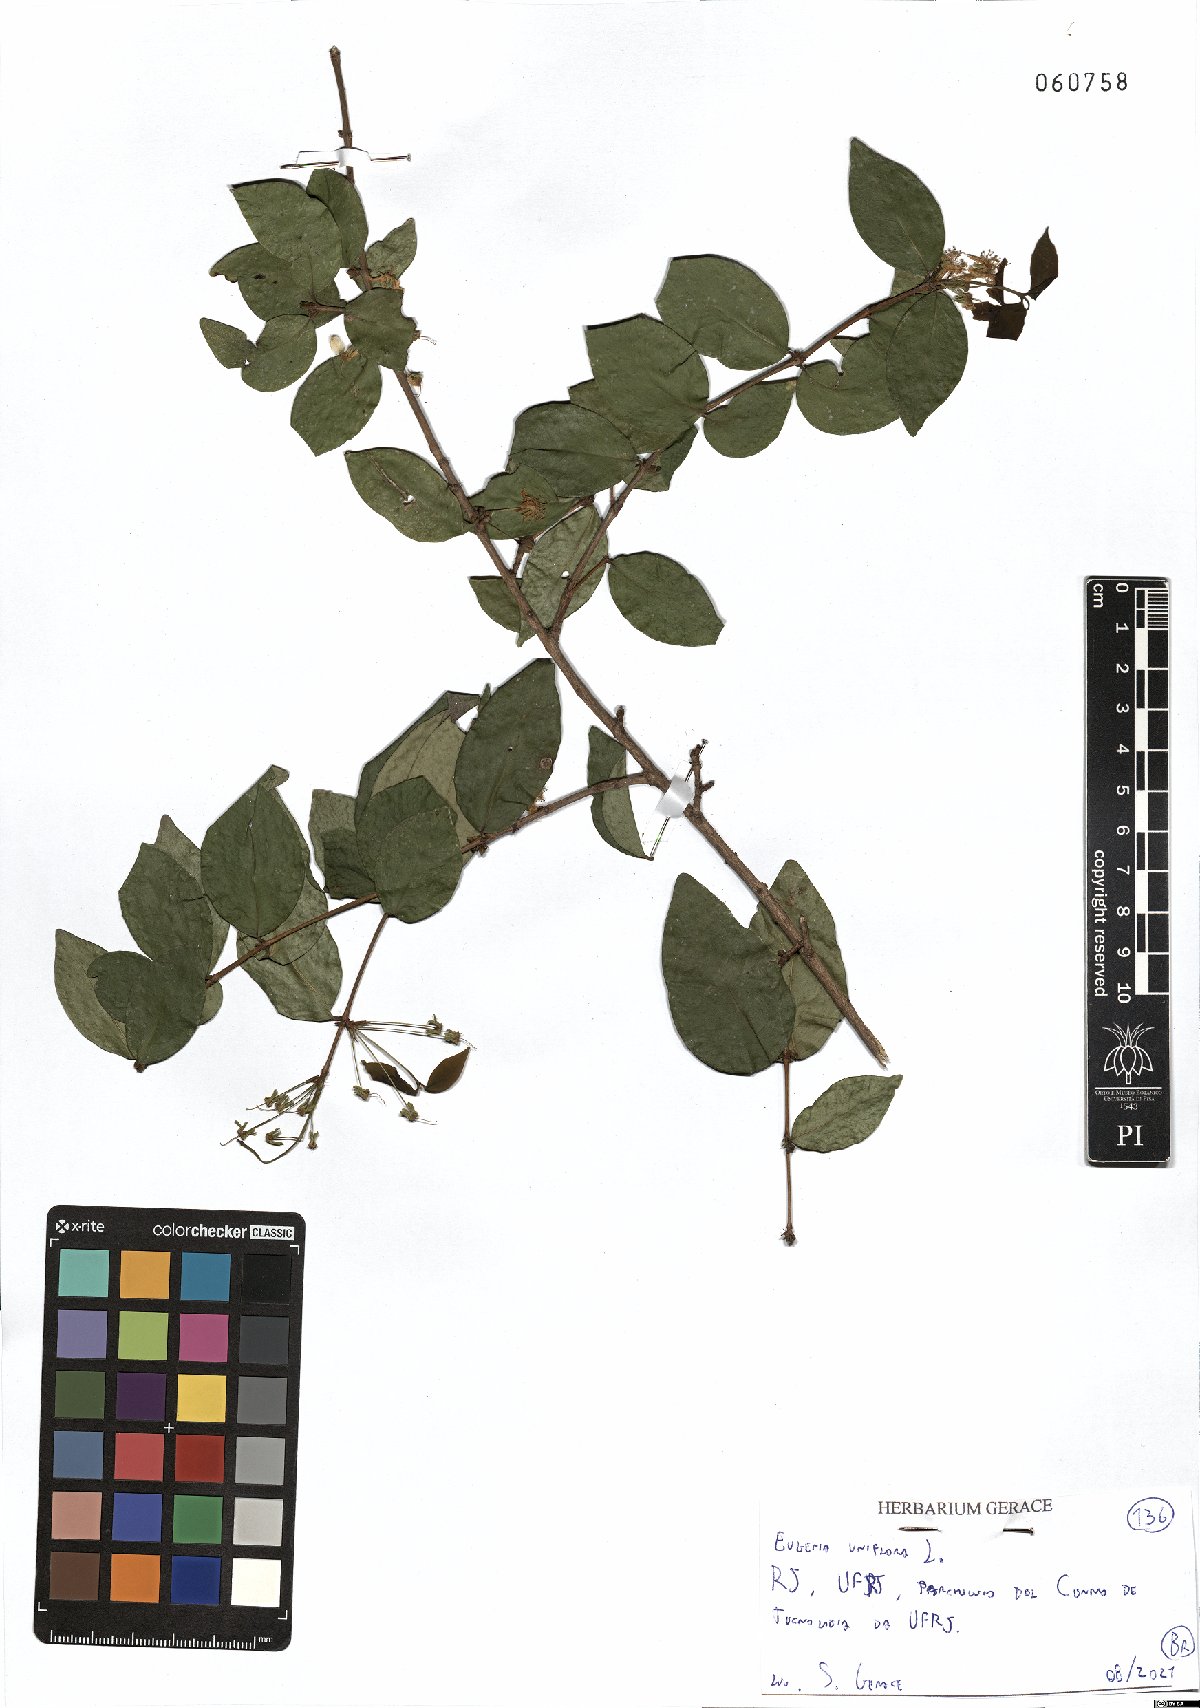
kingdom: Plantae
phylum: Tracheophyta
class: Magnoliopsida
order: Myrtales
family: Myrtaceae
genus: Eugenia
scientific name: Eugenia uniflora
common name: Surinam cherry
